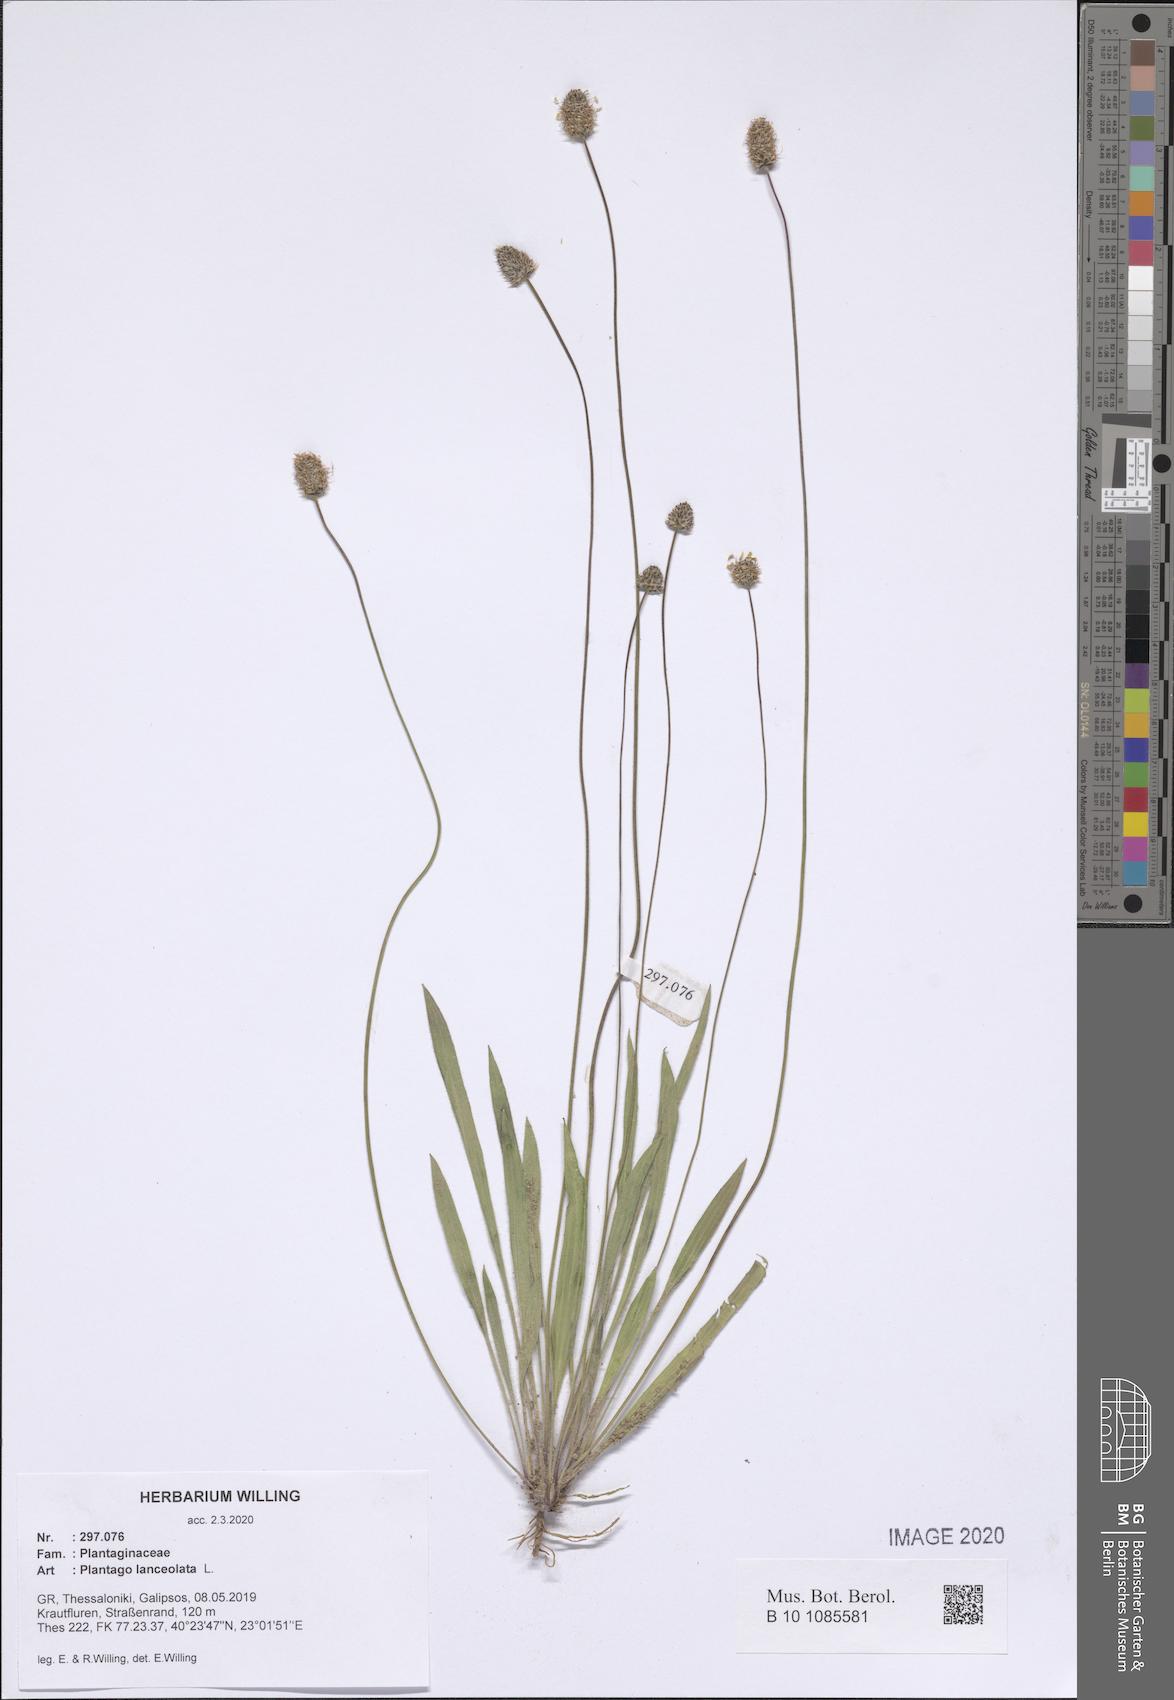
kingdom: Plantae
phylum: Tracheophyta
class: Magnoliopsida
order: Lamiales
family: Plantaginaceae
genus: Plantago
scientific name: Plantago lanceolata
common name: Ribwort plantain
